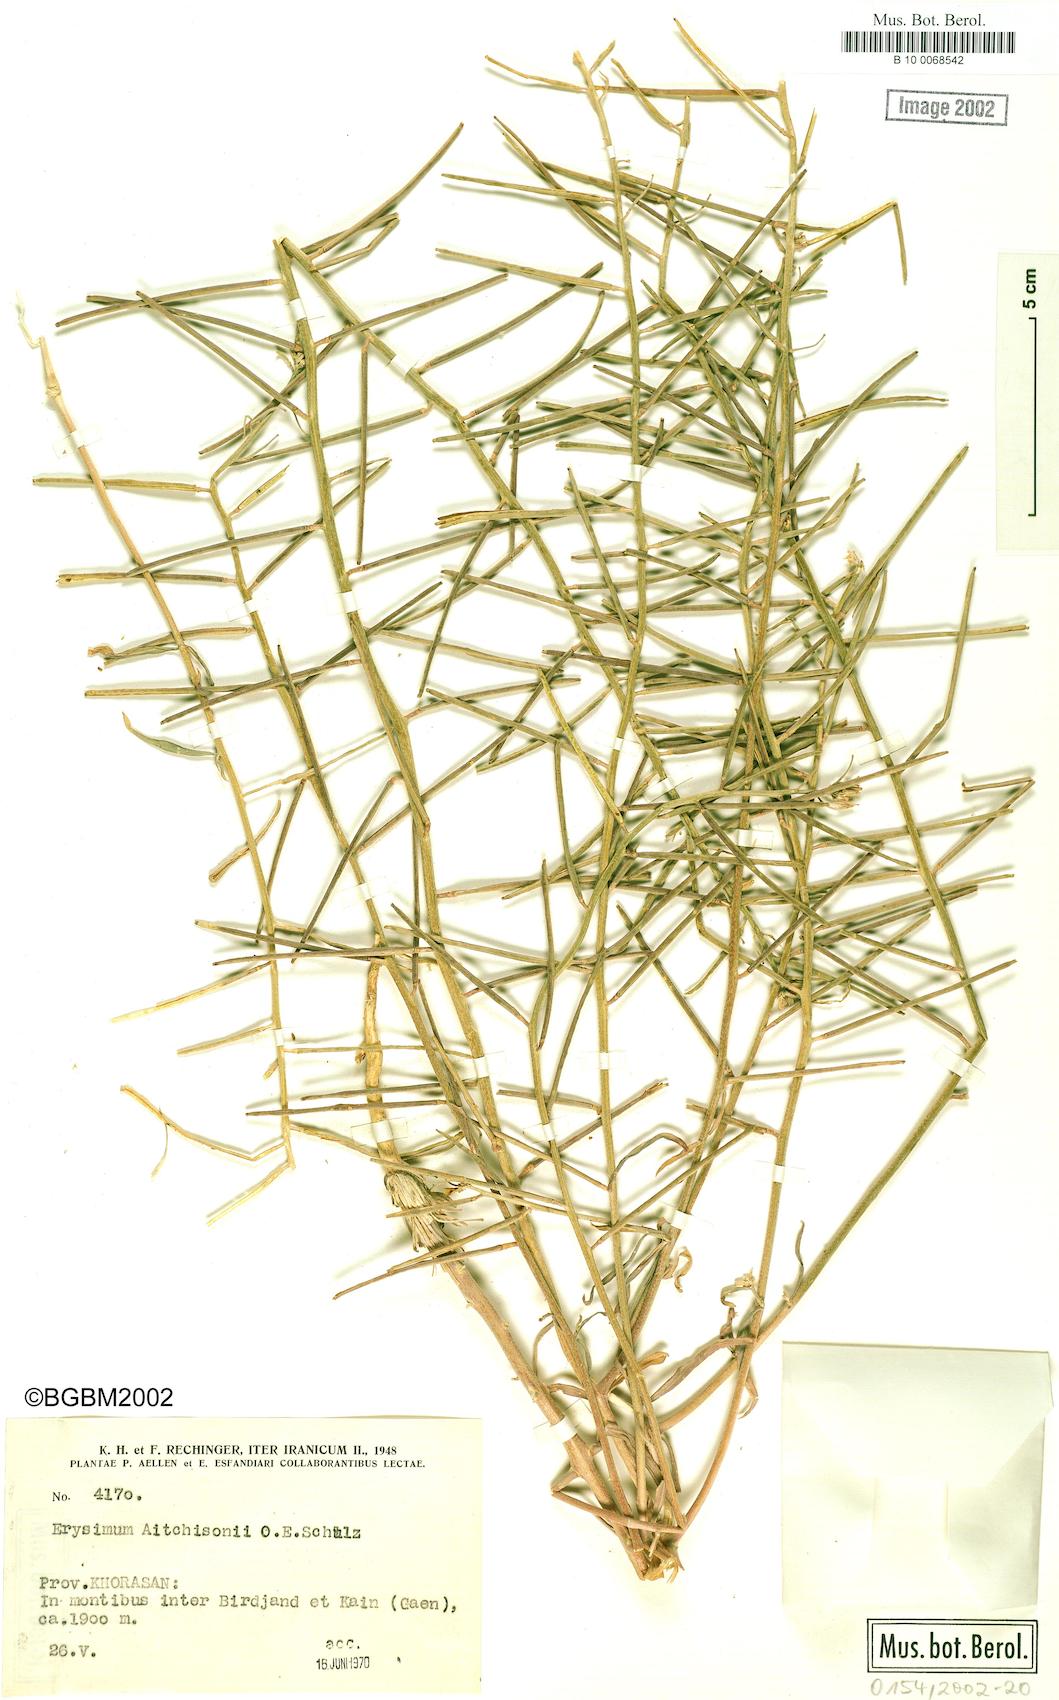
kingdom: Plantae
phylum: Tracheophyta
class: Magnoliopsida
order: Brassicales
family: Brassicaceae
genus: Erysimum
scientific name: Erysimum aitchisonii
